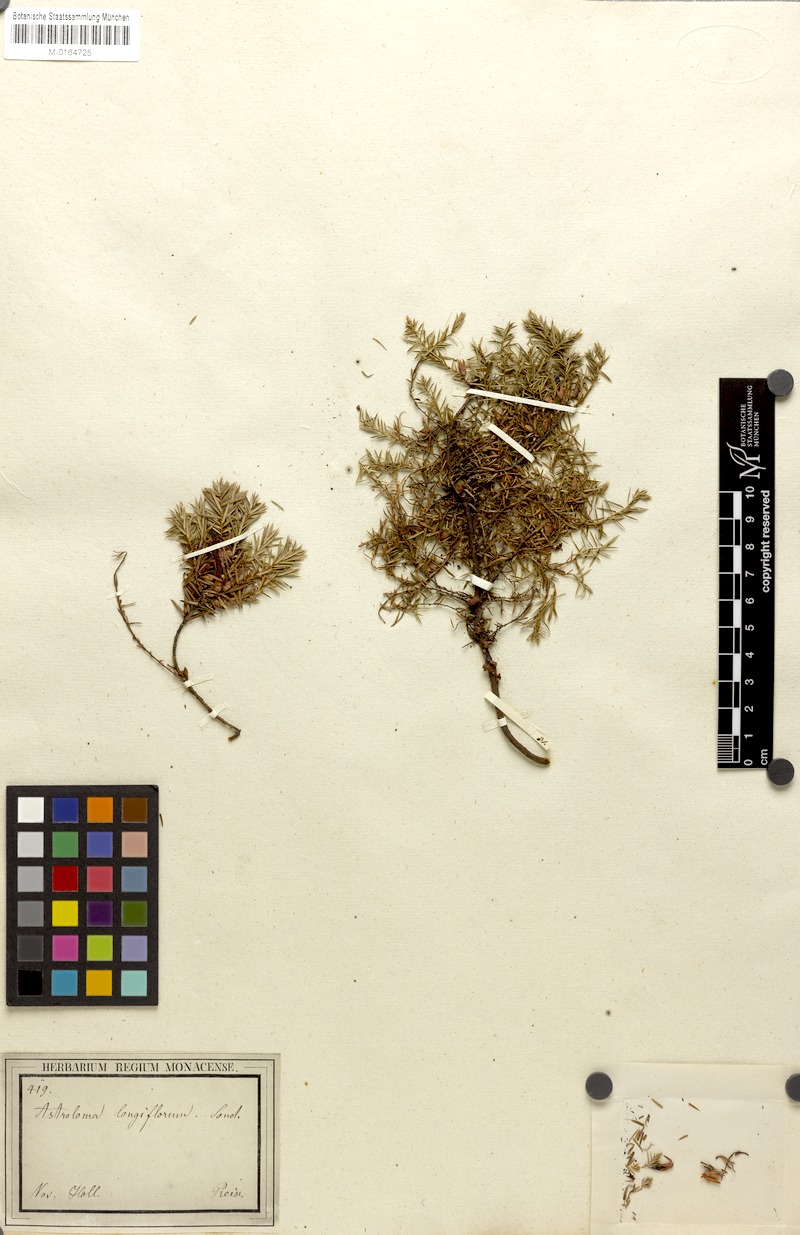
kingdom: Plantae
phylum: Tracheophyta
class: Magnoliopsida
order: Ericales
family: Ericaceae
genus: Styphelia
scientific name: Styphelia discolor
